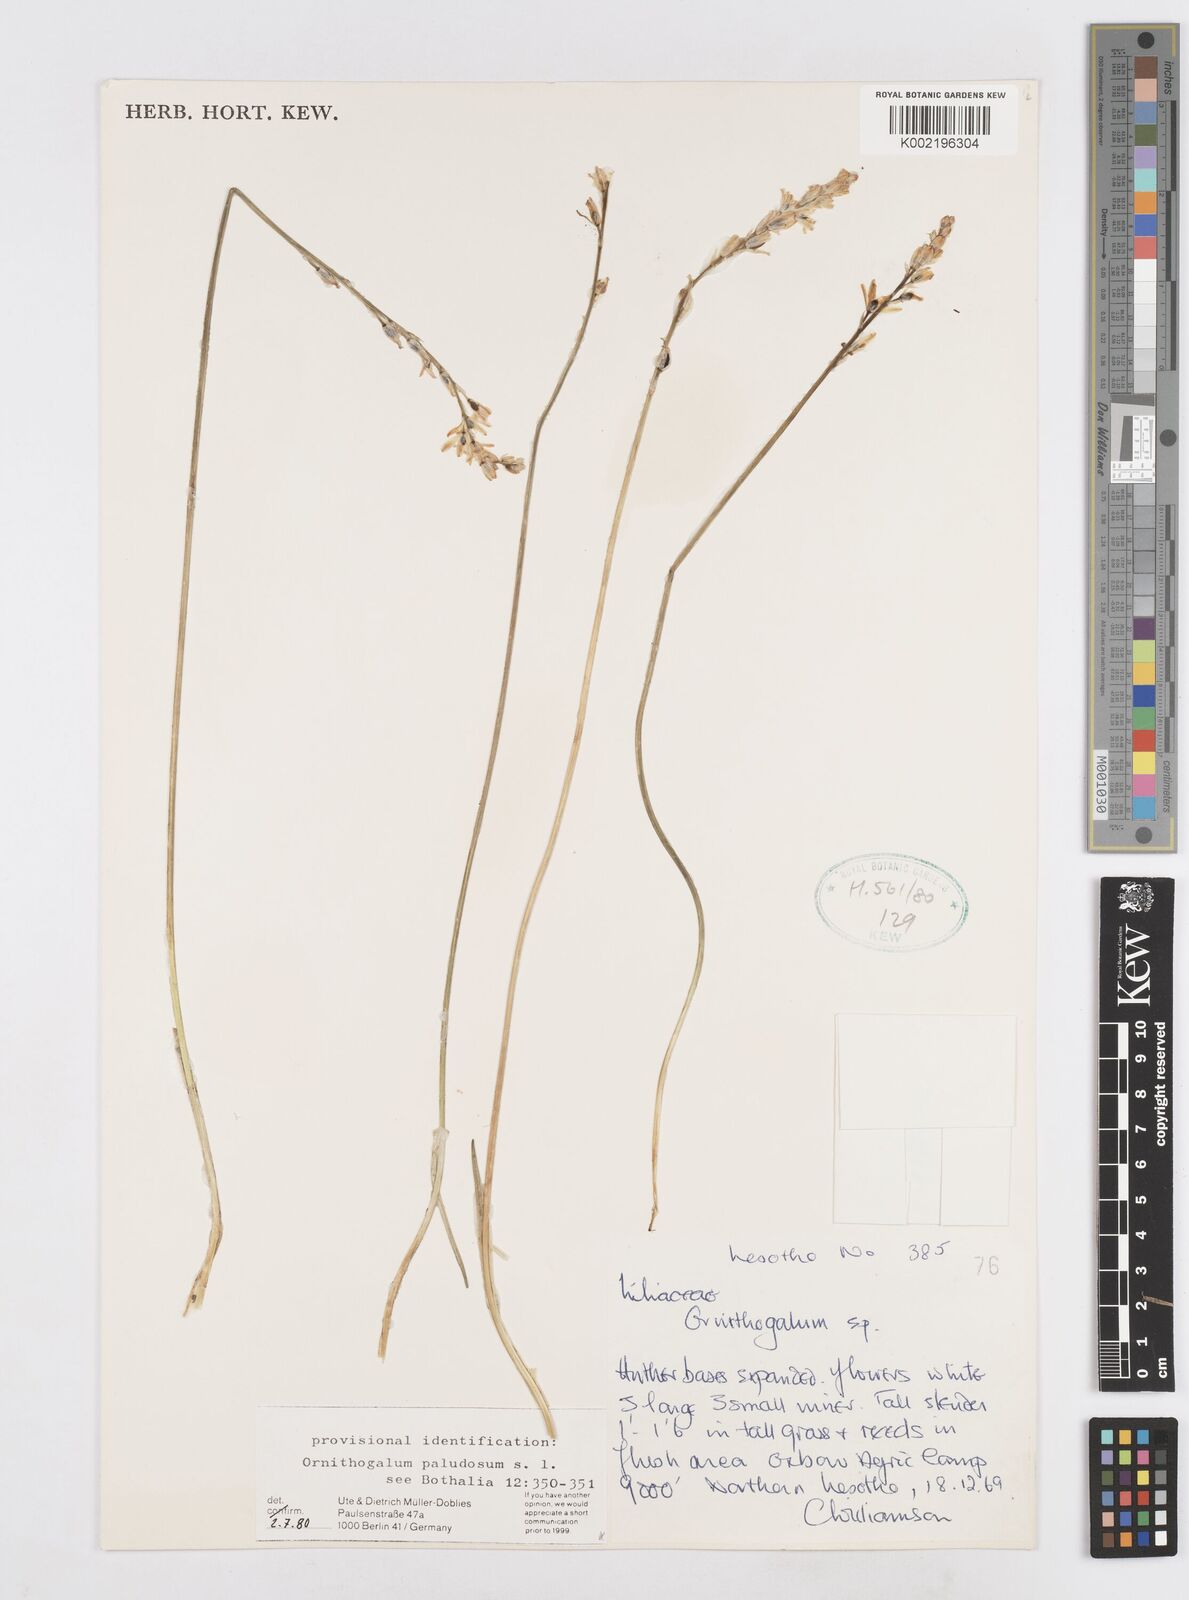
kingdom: Plantae
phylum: Tracheophyta
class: Liliopsida
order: Asparagales
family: Asparagaceae
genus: Ornithogalum
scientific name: Ornithogalum paludosum
